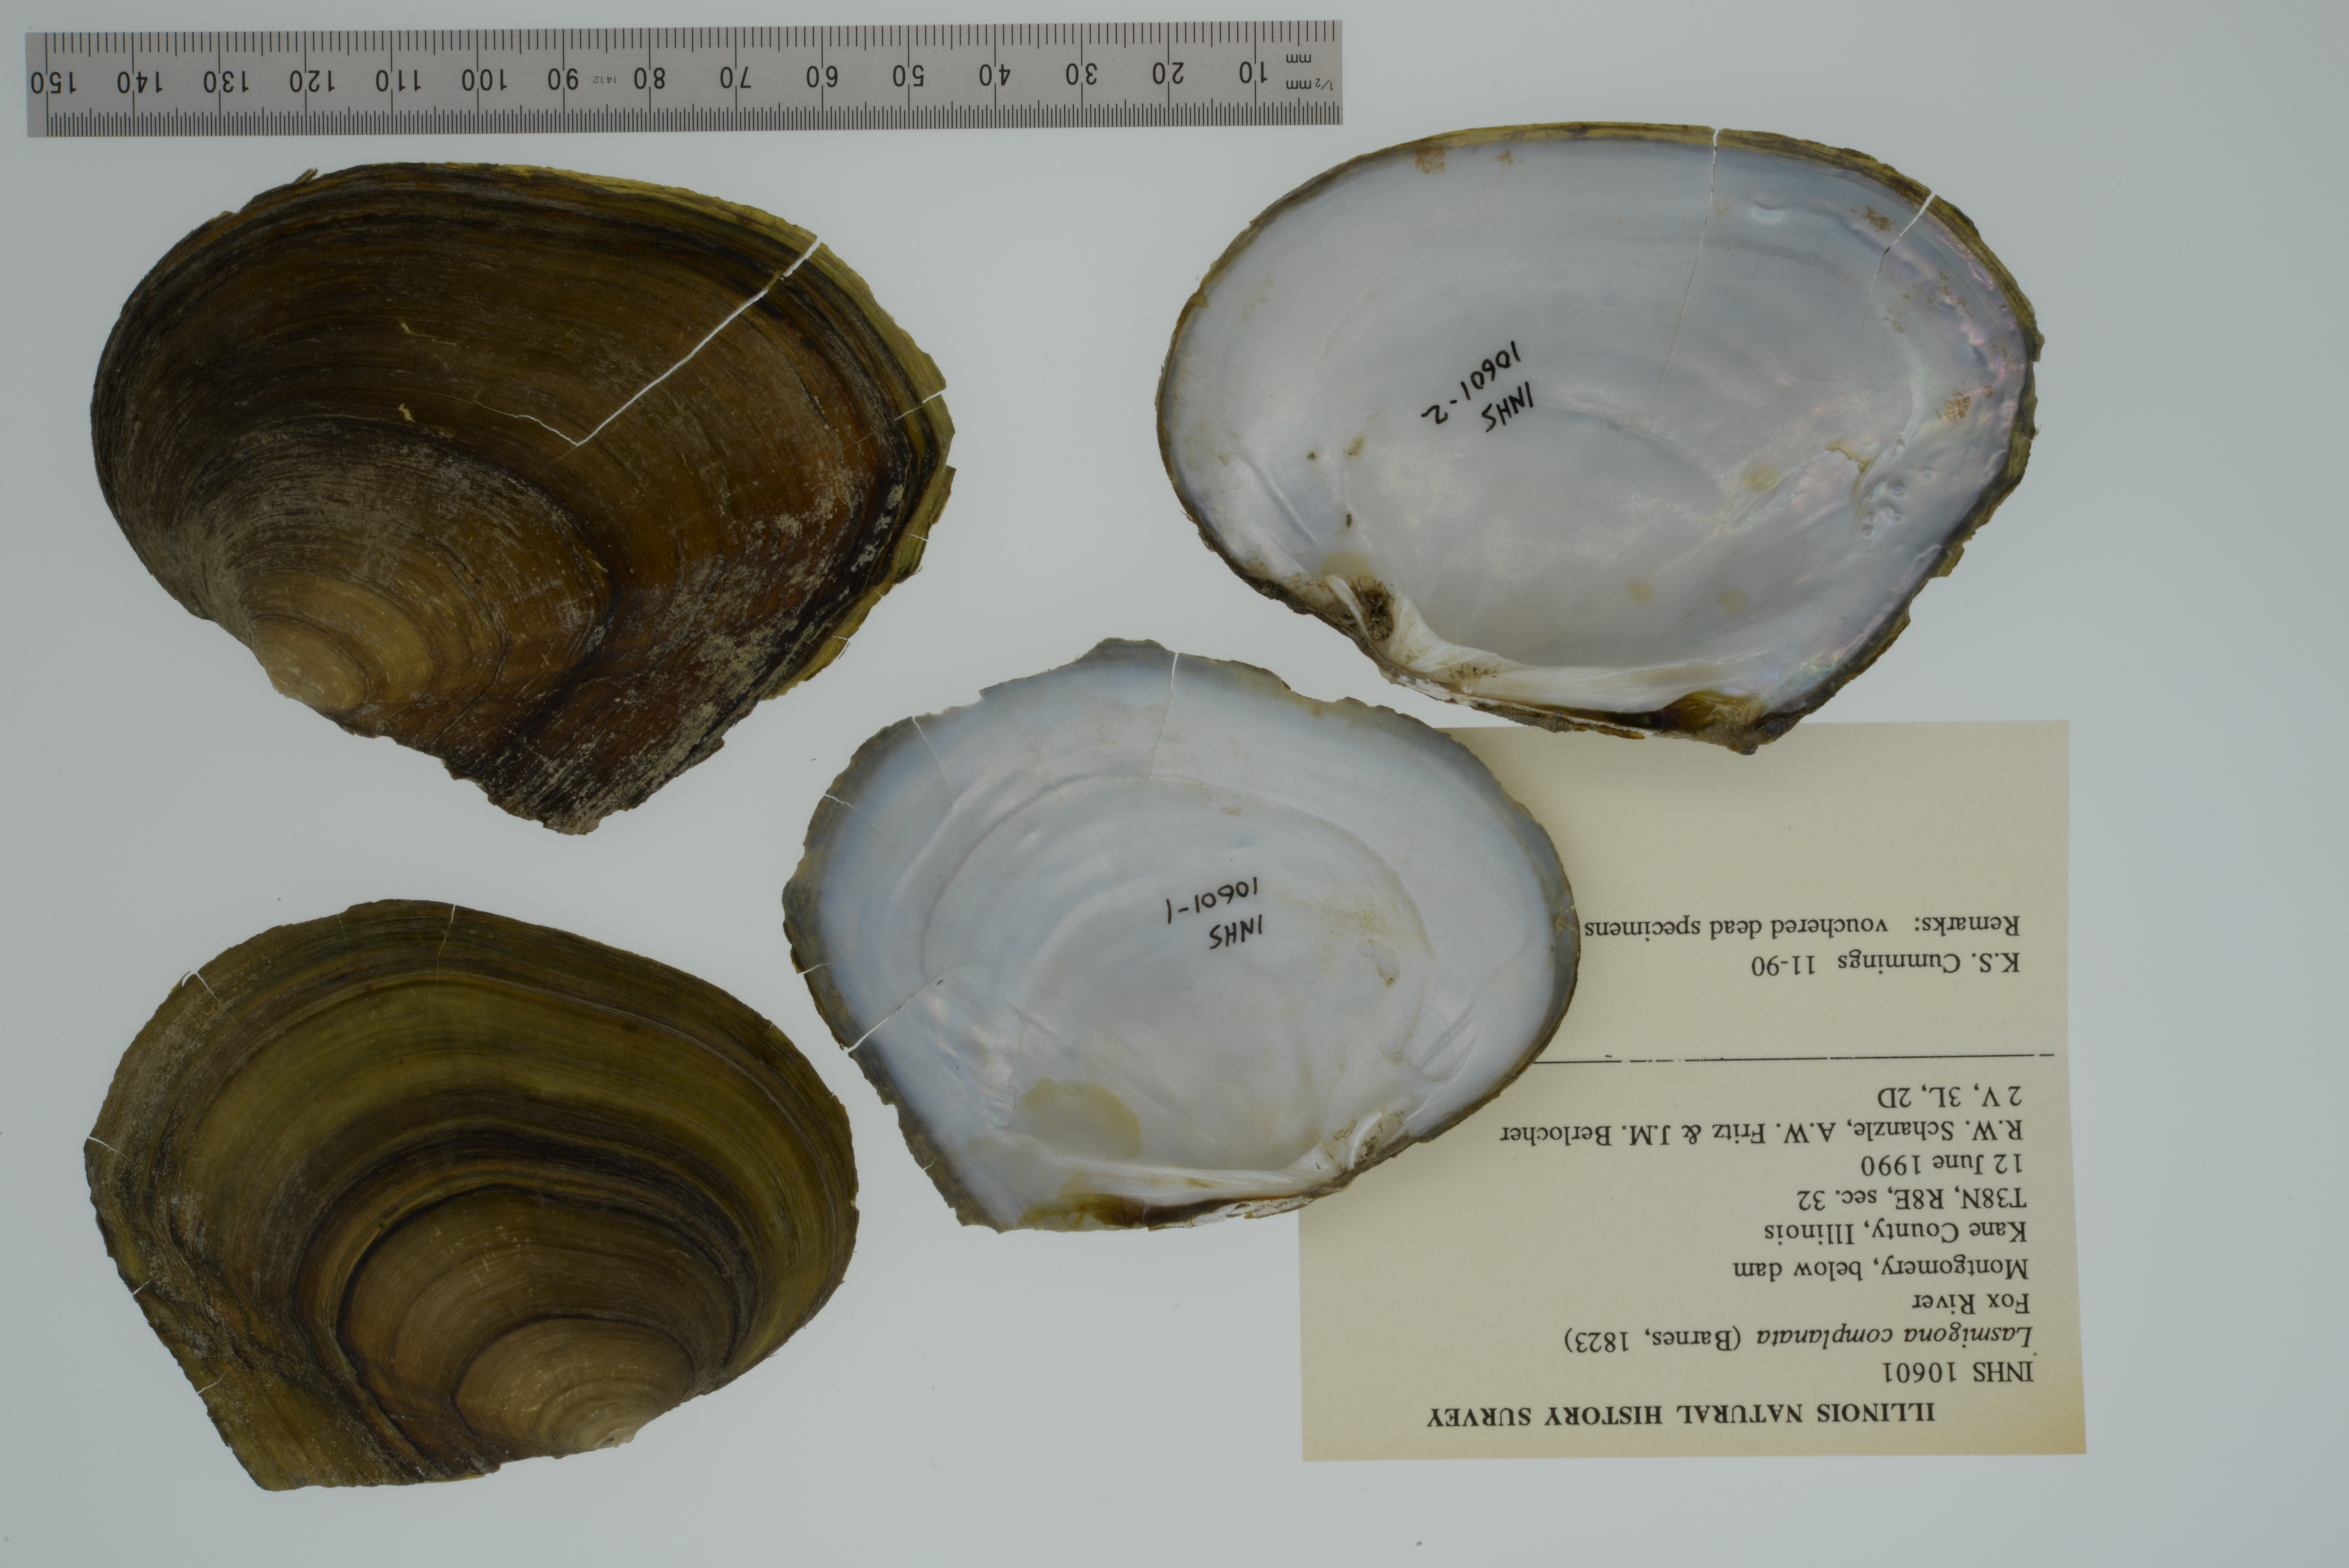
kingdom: Animalia
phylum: Mollusca
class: Bivalvia
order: Unionida
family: Unionidae
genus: Lasmigona
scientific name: Lasmigona complanata
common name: White heelsplitter
